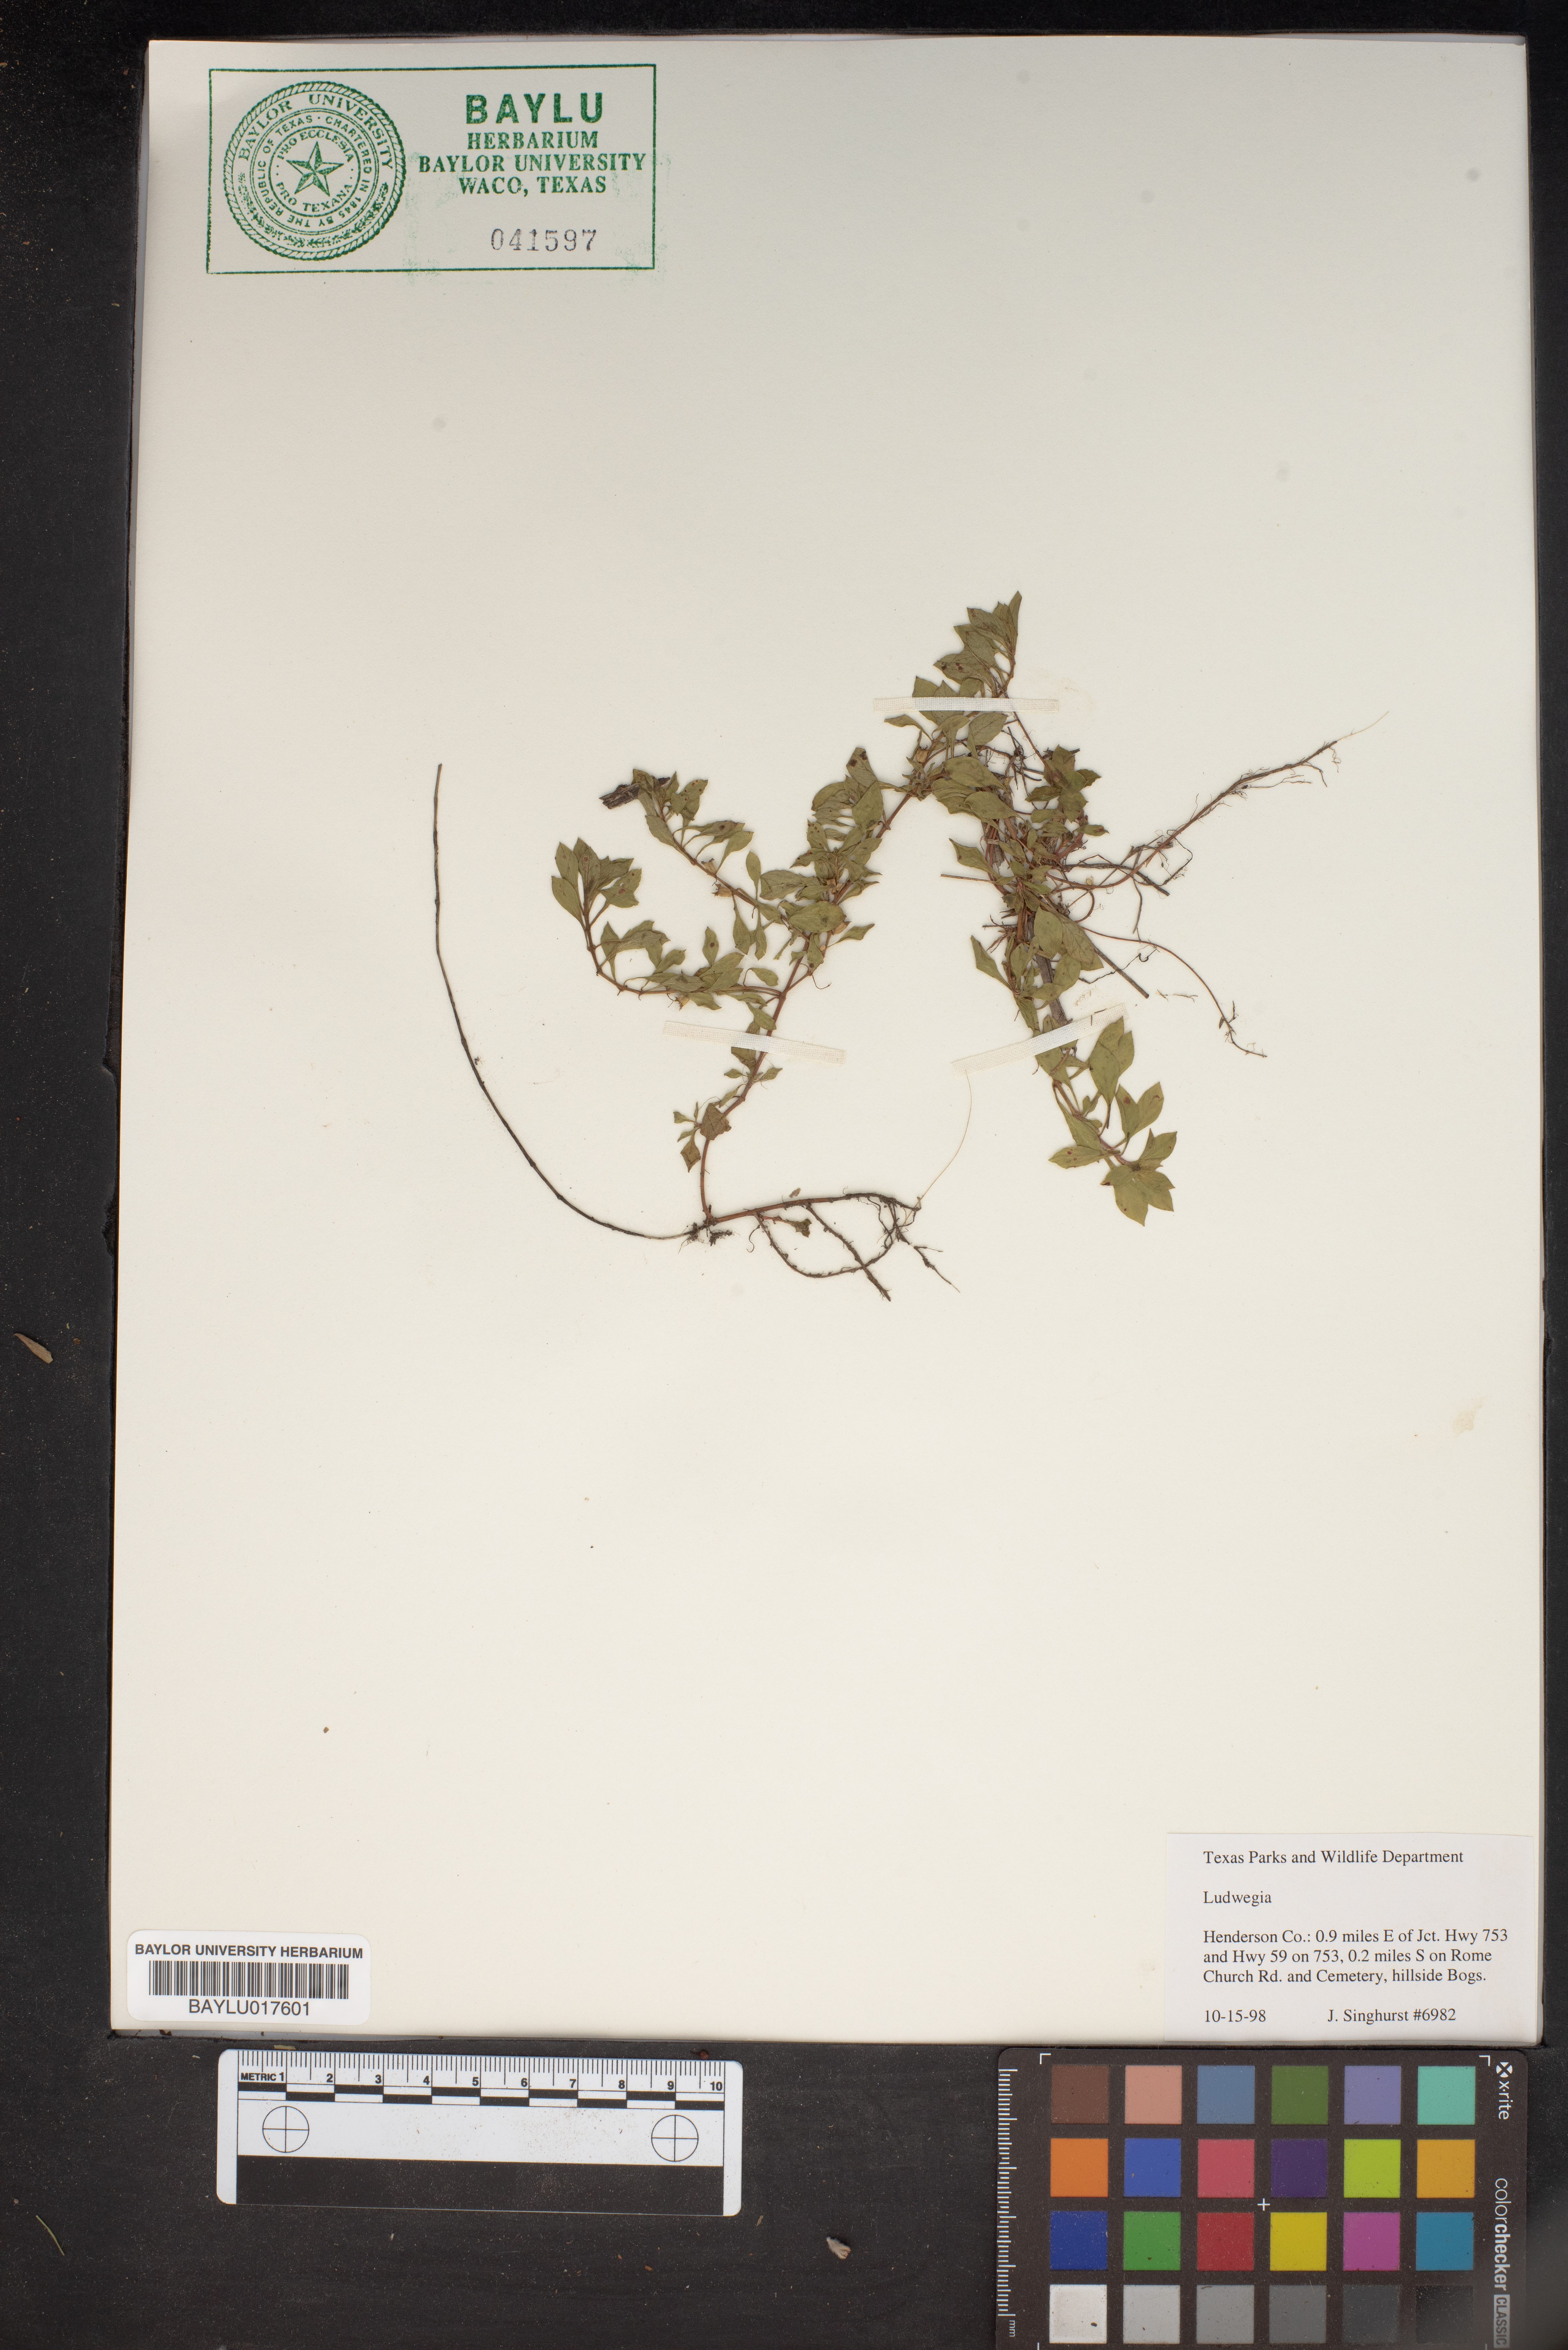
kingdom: Plantae
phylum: Tracheophyta
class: Magnoliopsida
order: Myrtales
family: Onagraceae
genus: Ludwigia
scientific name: Ludwigia
